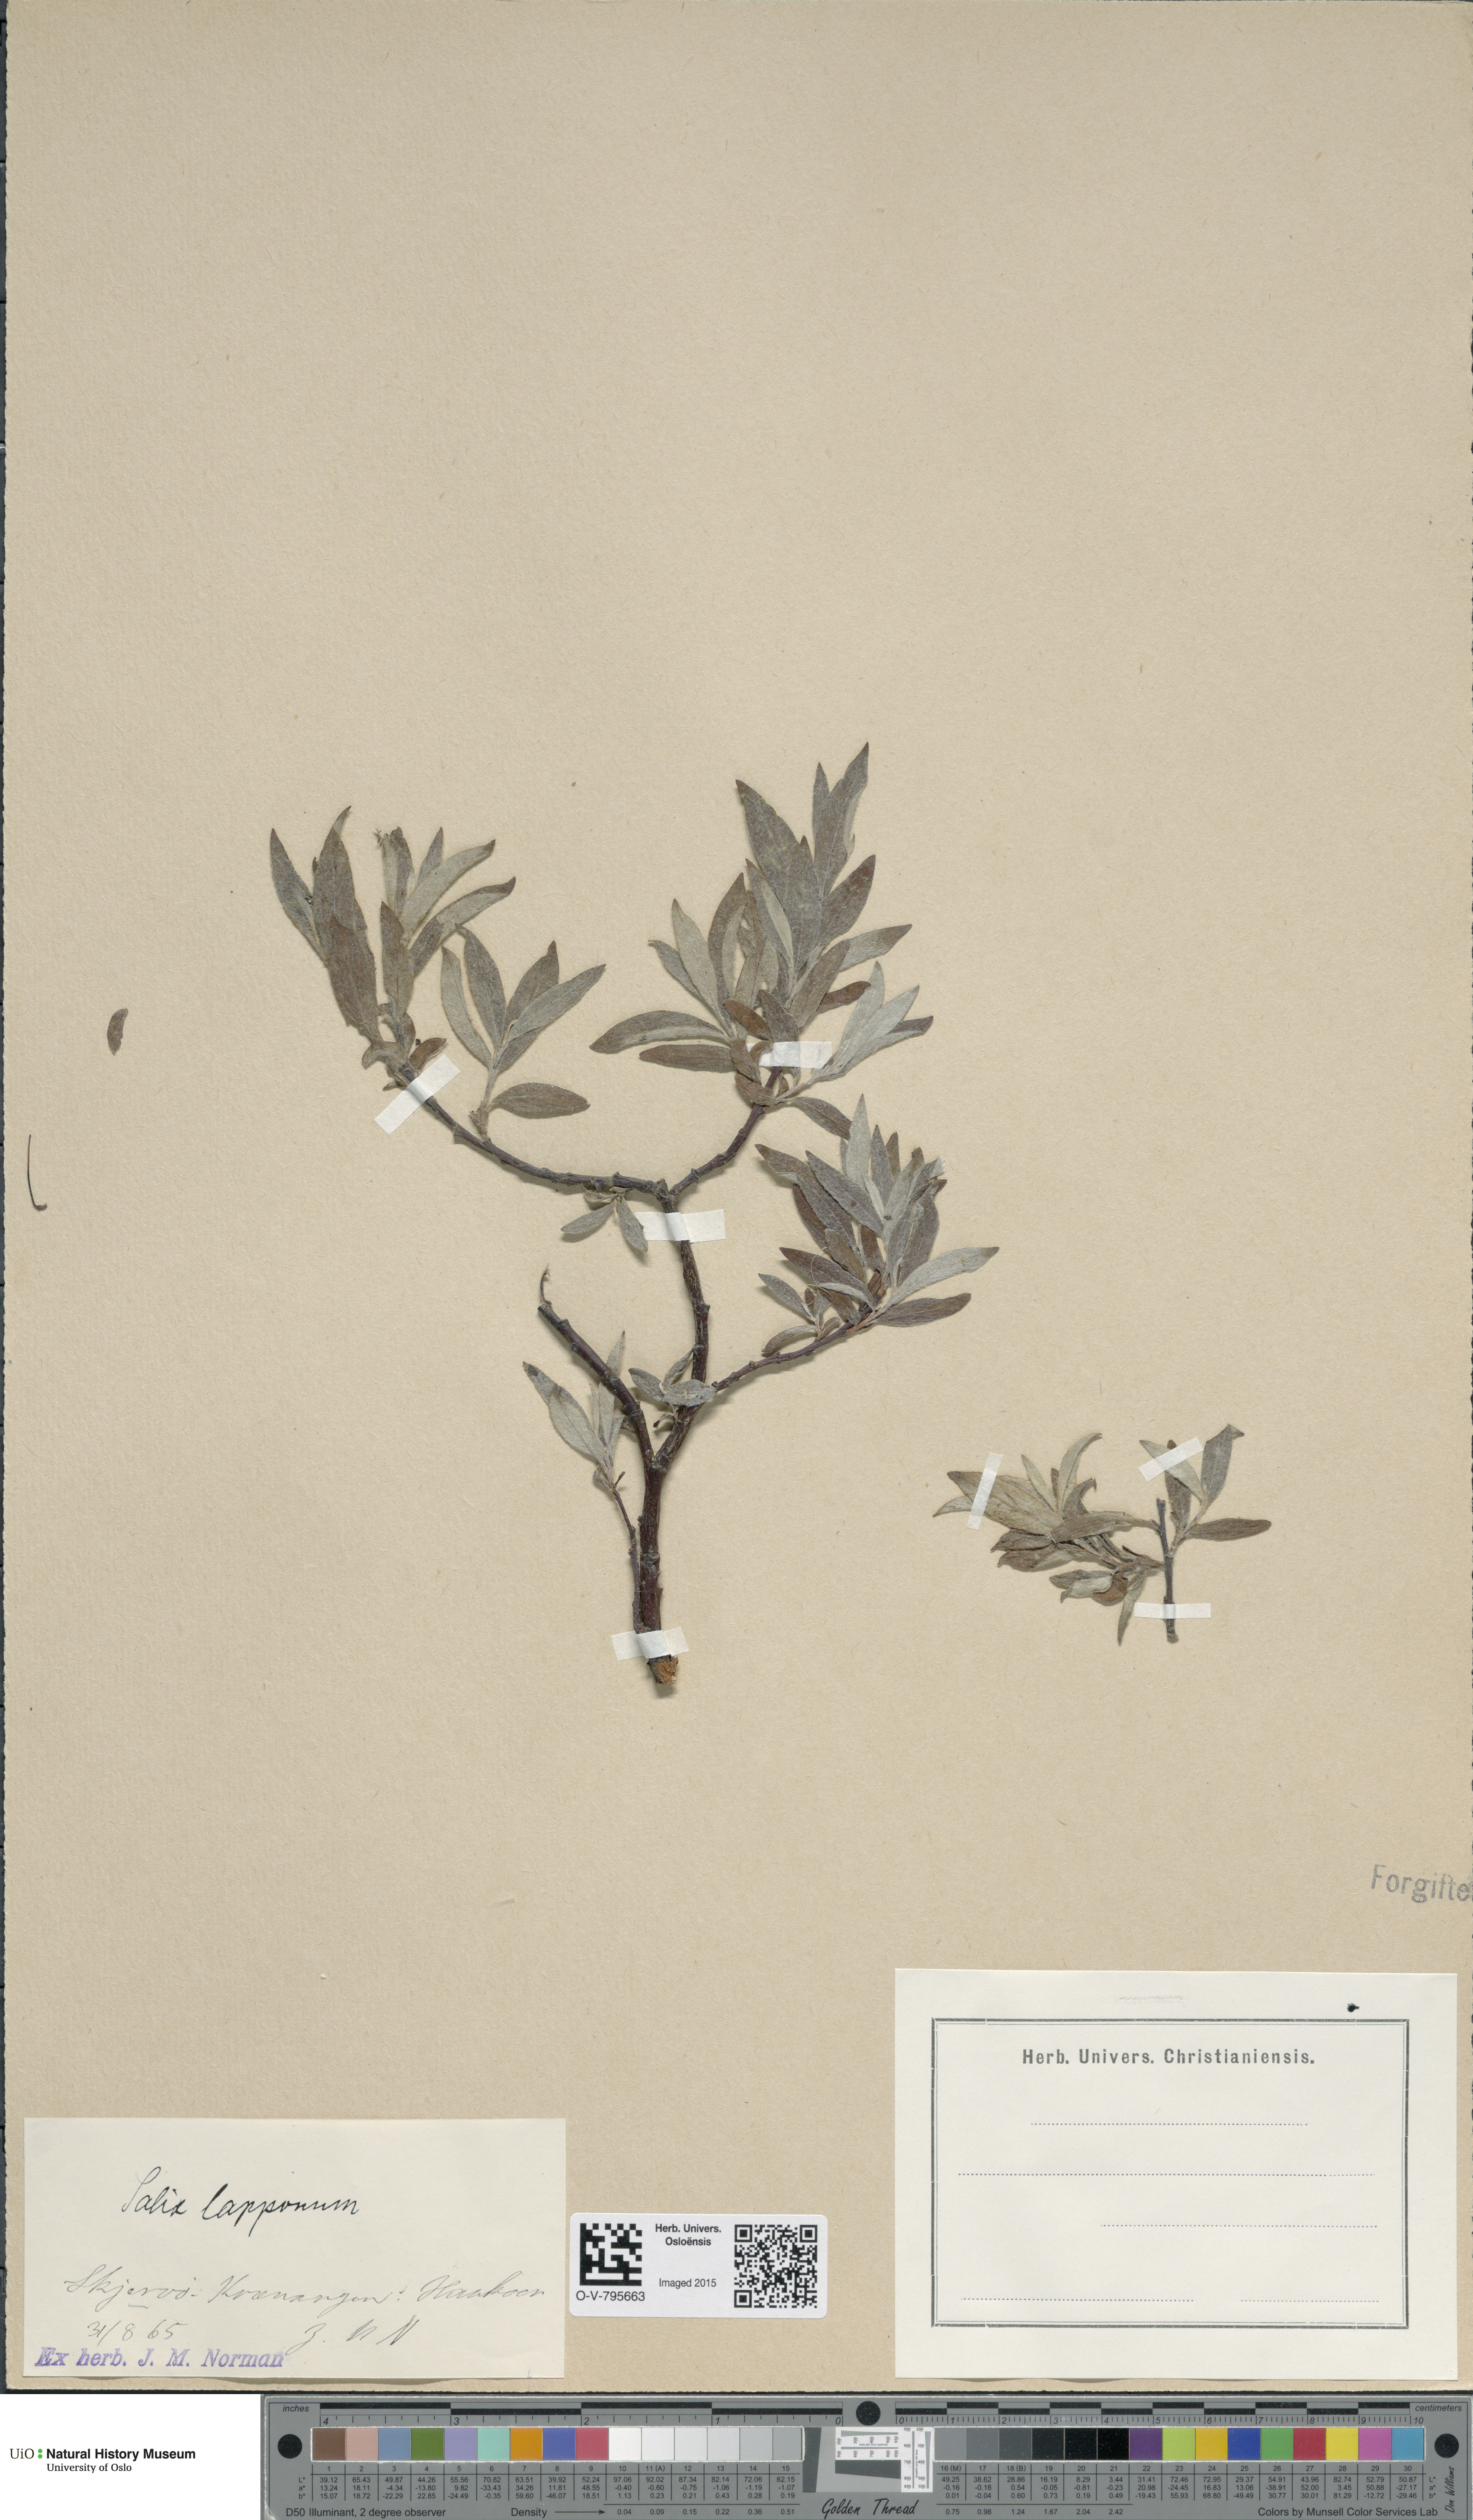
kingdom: Plantae
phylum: Tracheophyta
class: Magnoliopsida
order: Malpighiales
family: Salicaceae
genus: Salix
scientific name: Salix lapponum
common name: Downy willow
